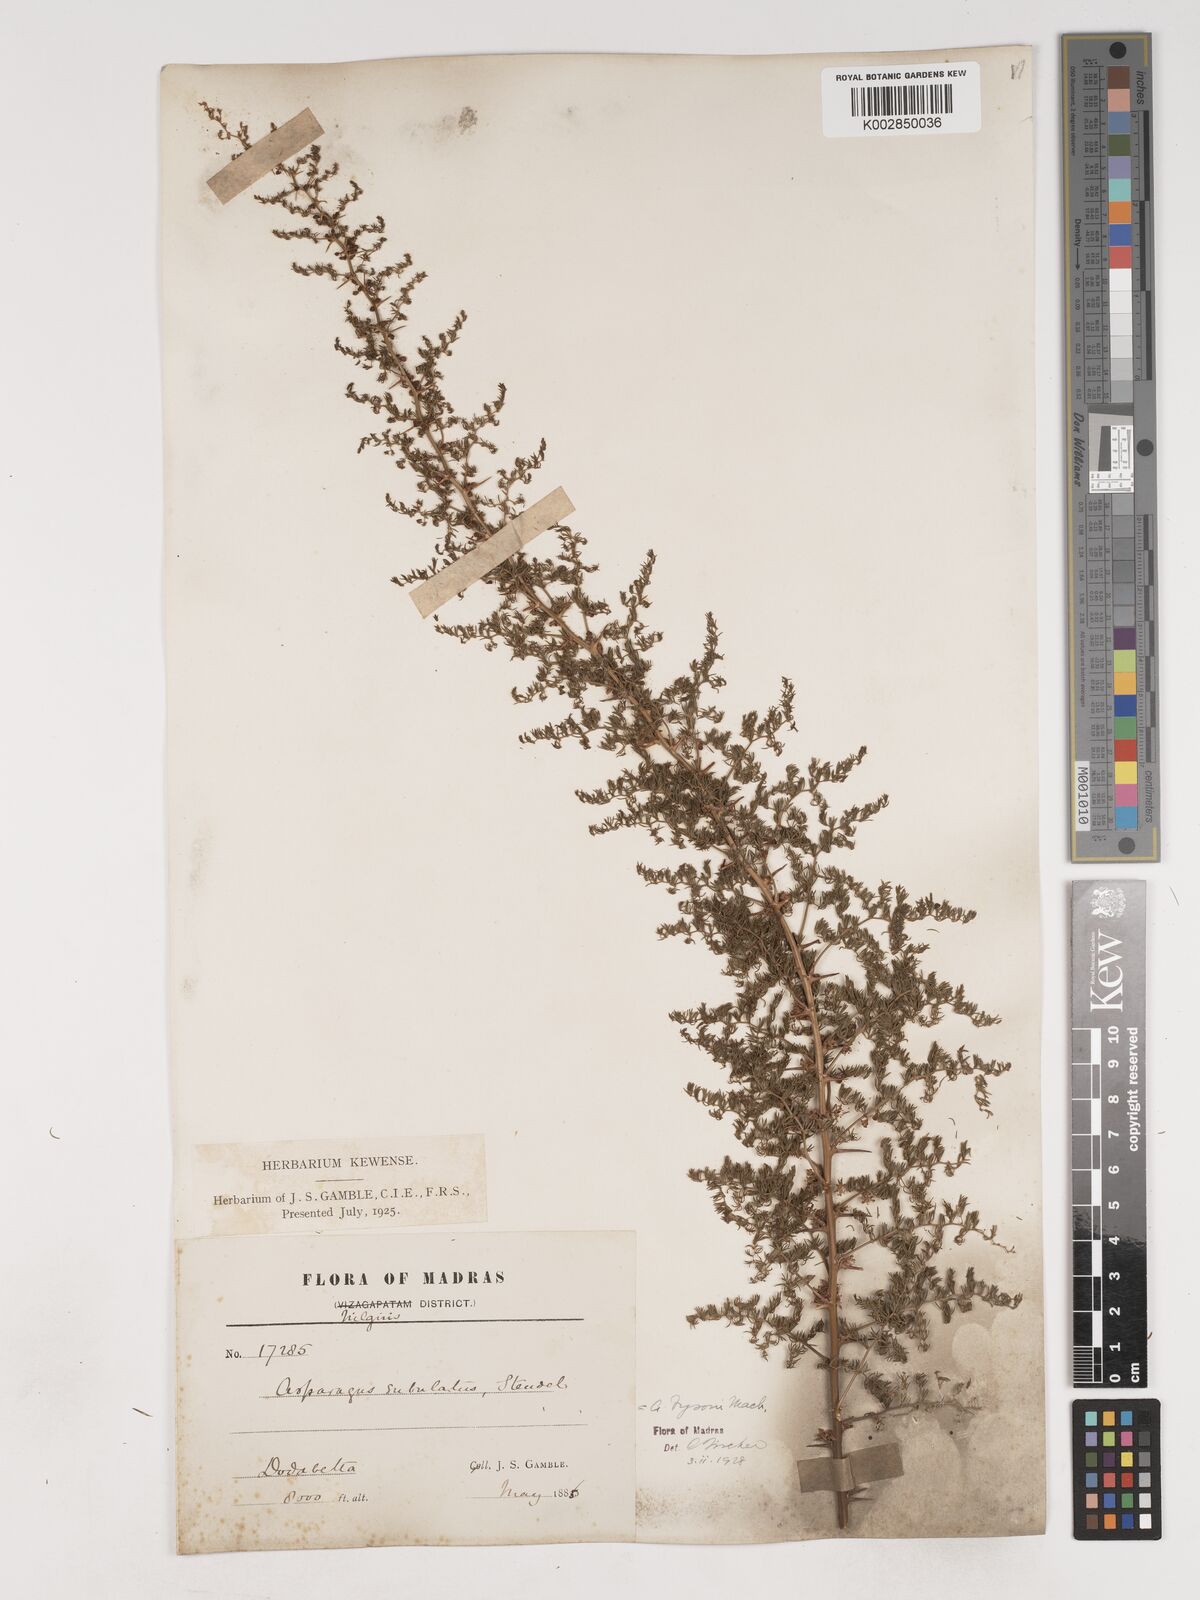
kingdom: Plantae
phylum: Tracheophyta
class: Liliopsida
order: Asparagales
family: Asparagaceae
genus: Asparagus
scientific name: Asparagus fysonii
